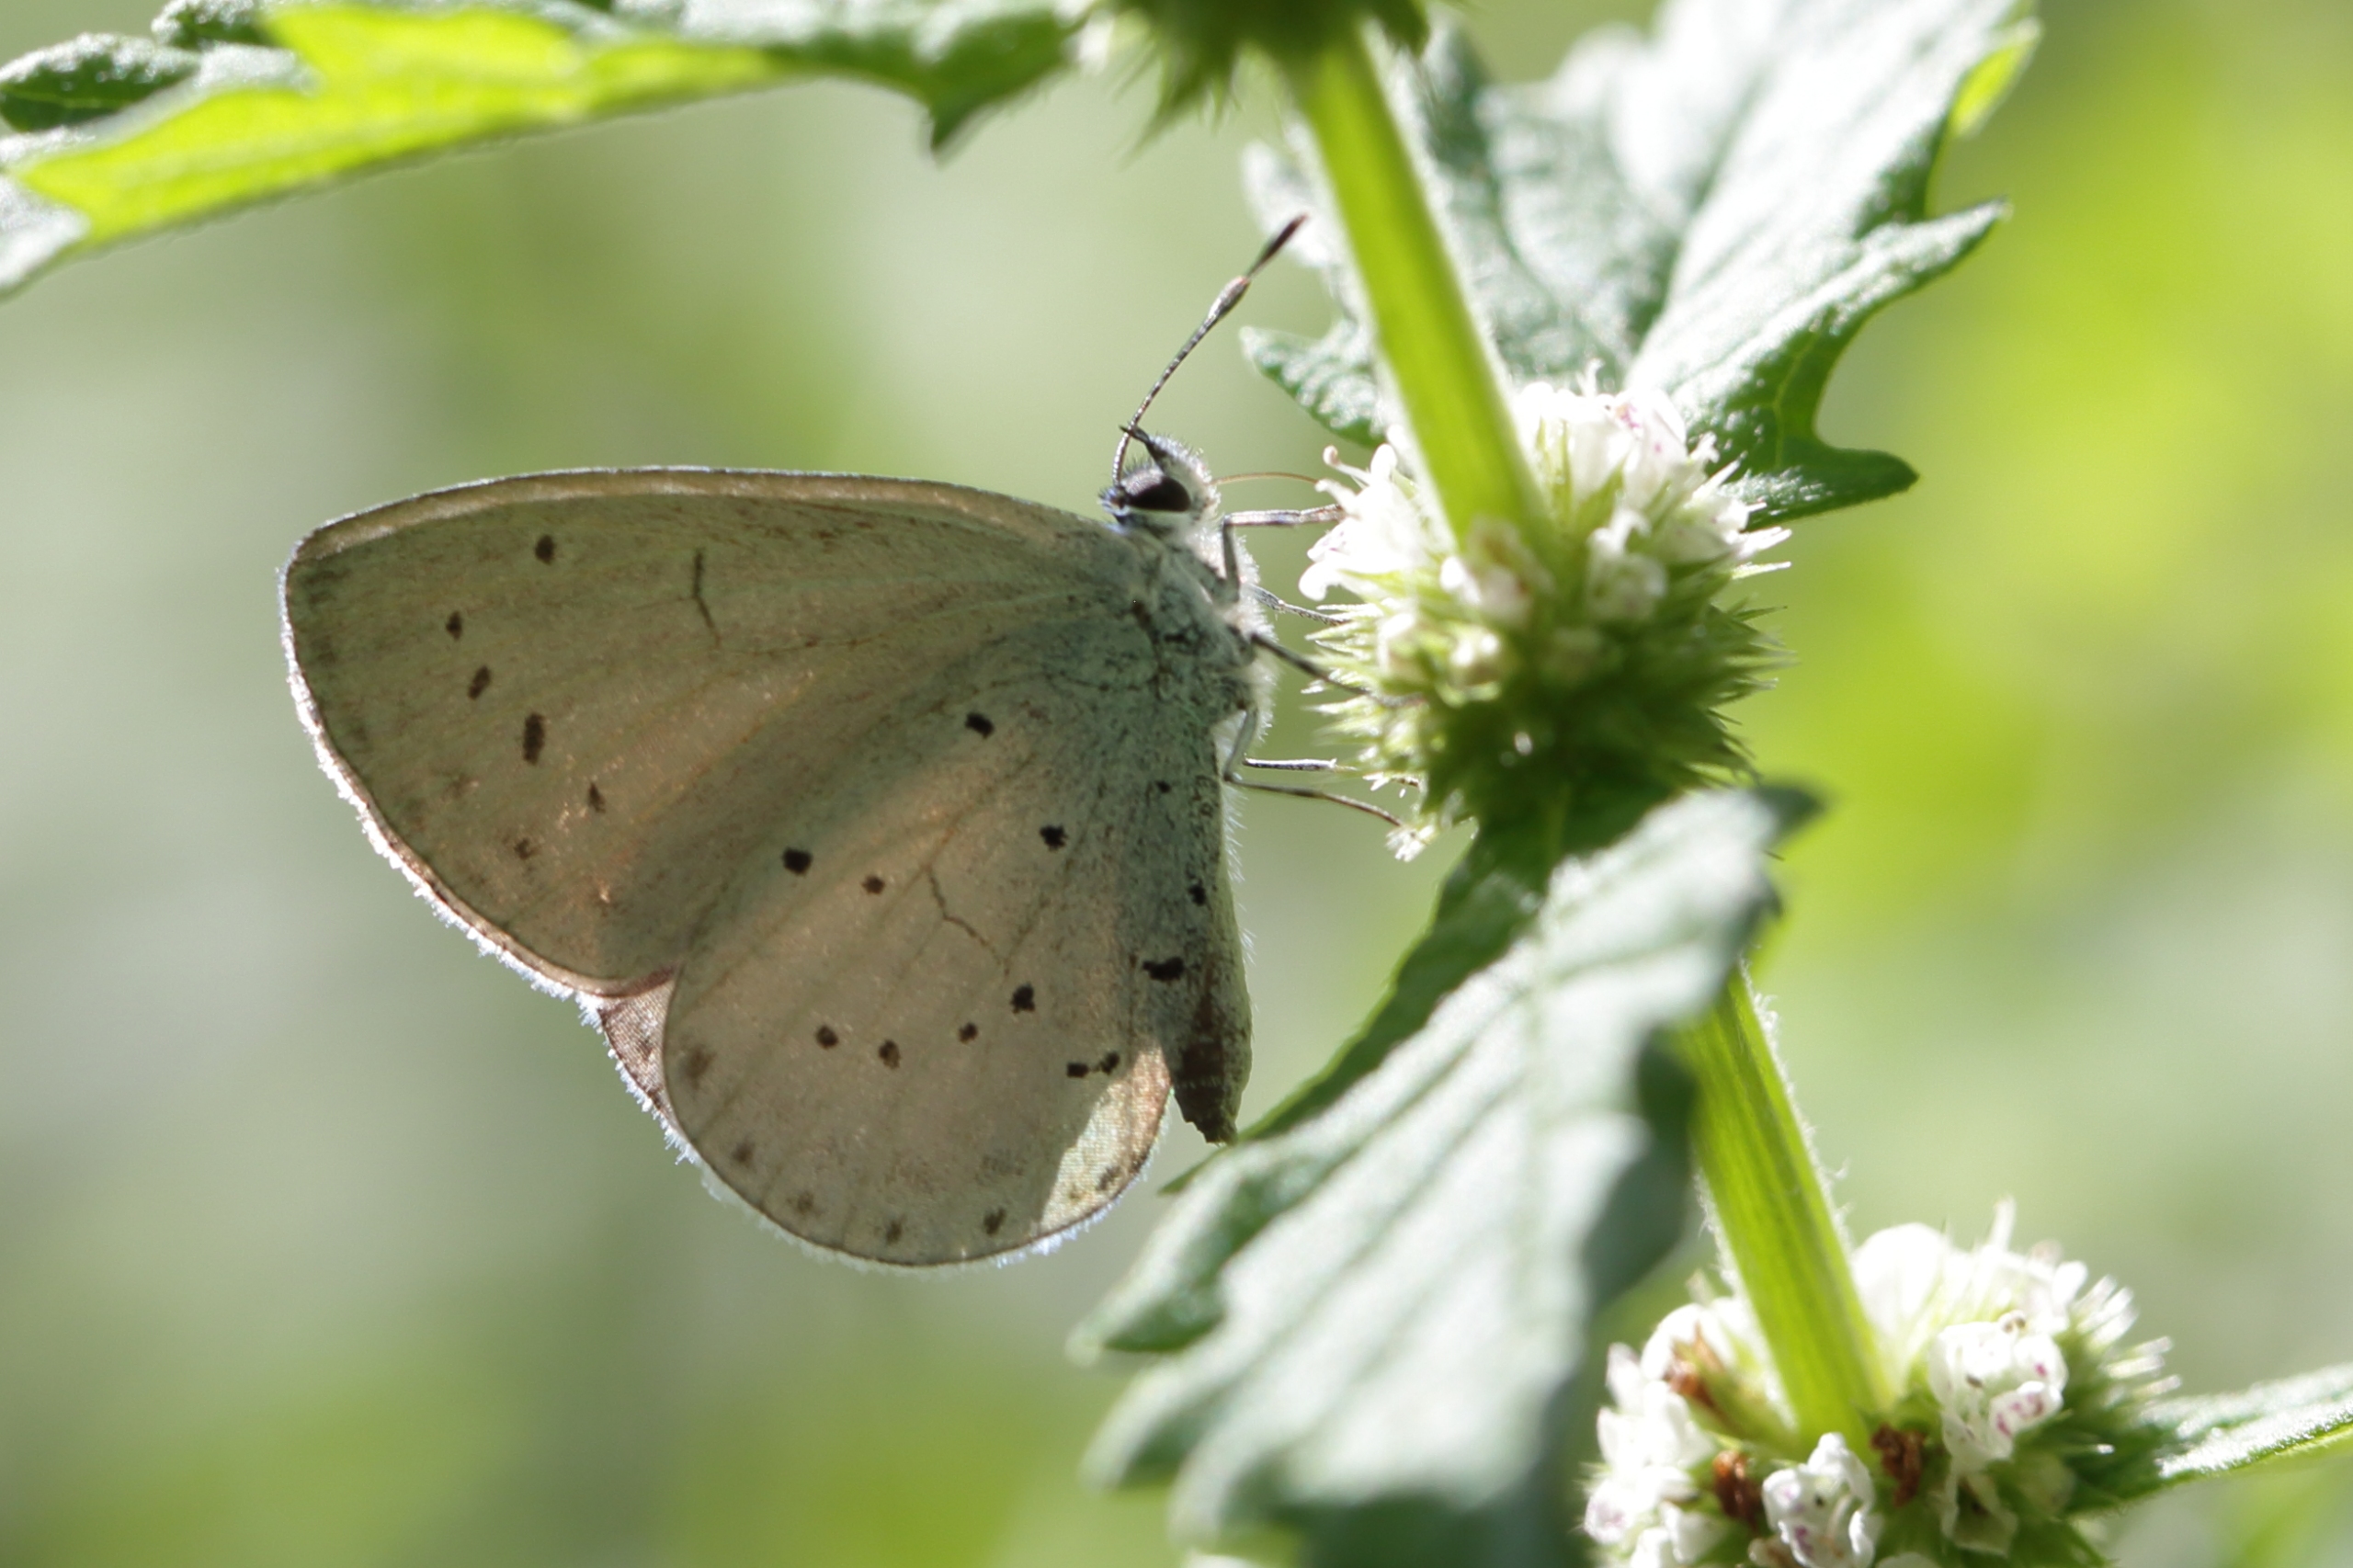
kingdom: Animalia
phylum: Arthropoda
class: Insecta
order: Lepidoptera
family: Lycaenidae
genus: Celastrina
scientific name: Celastrina argiolus
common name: Skovblåfugl
